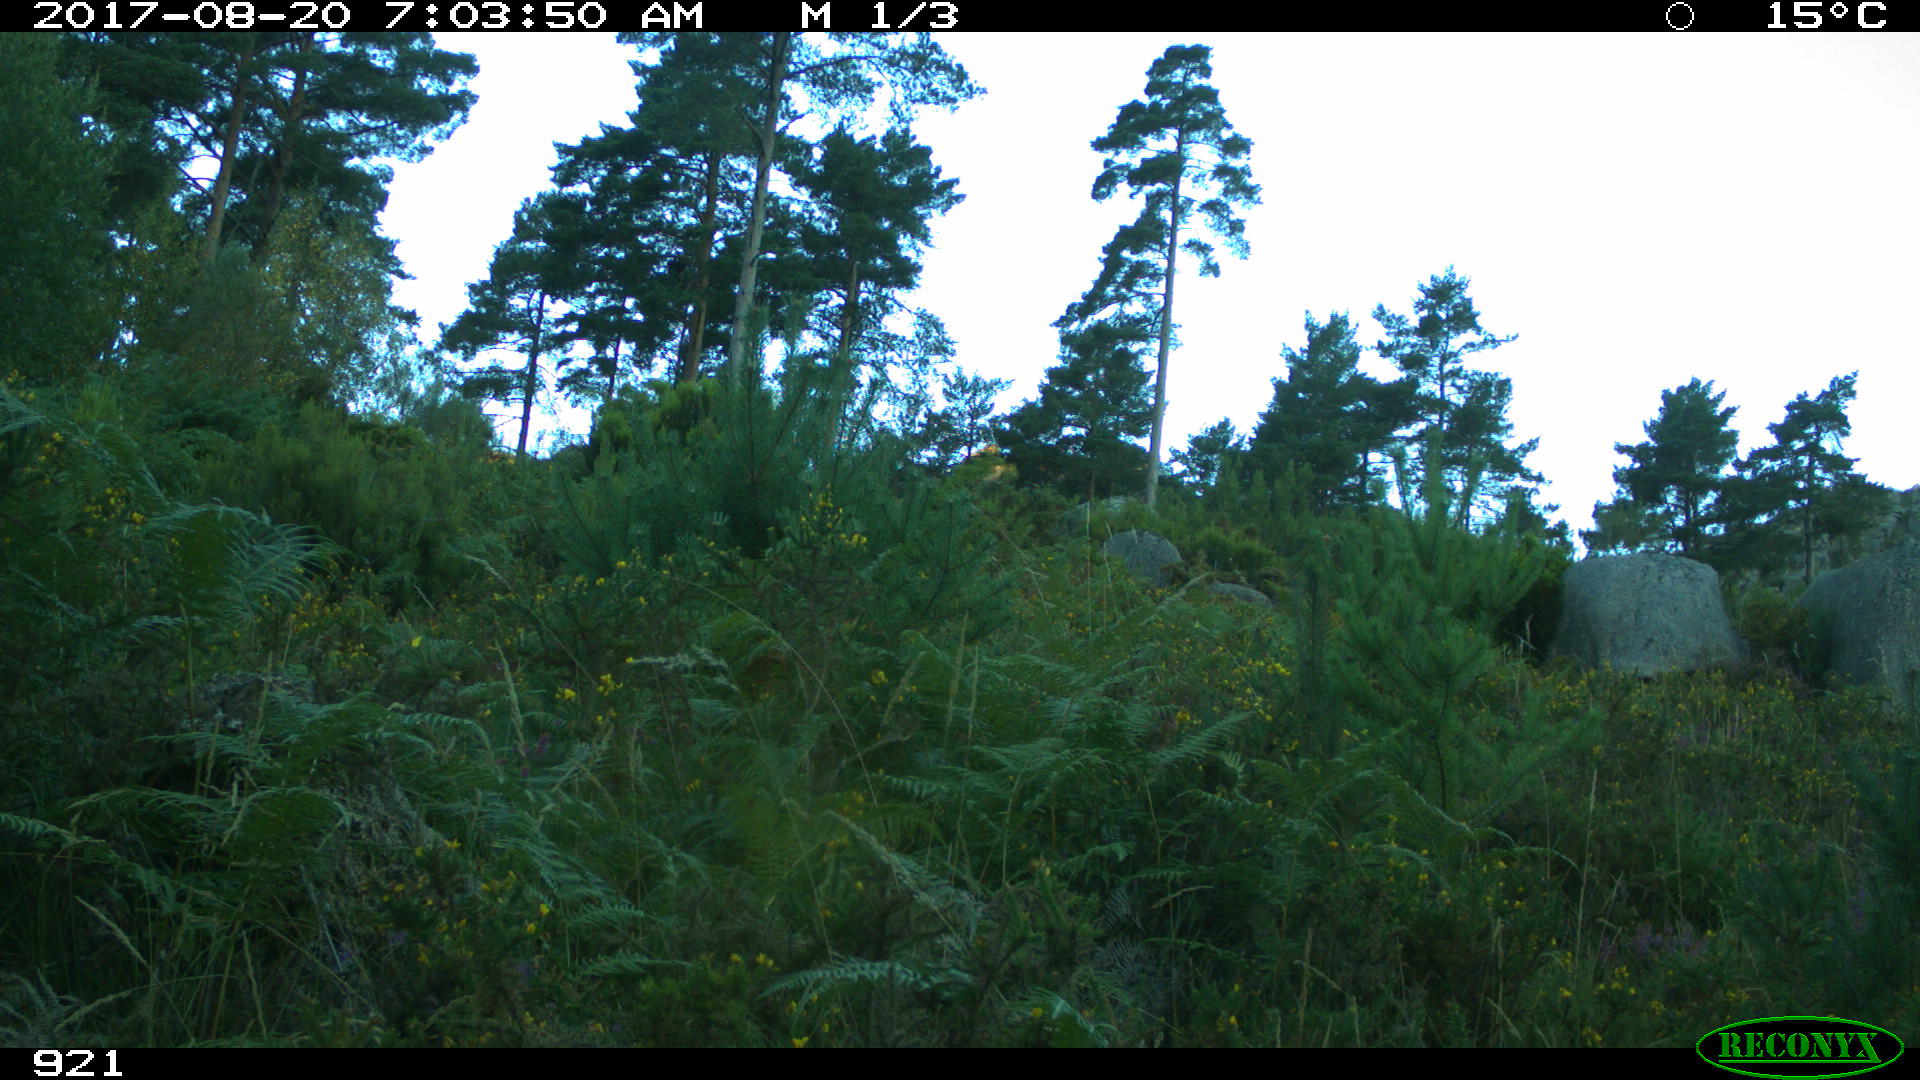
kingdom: Animalia
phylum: Chordata
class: Mammalia
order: Artiodactyla
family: Cervidae
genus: Capreolus
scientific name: Capreolus capreolus
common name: Western roe deer
